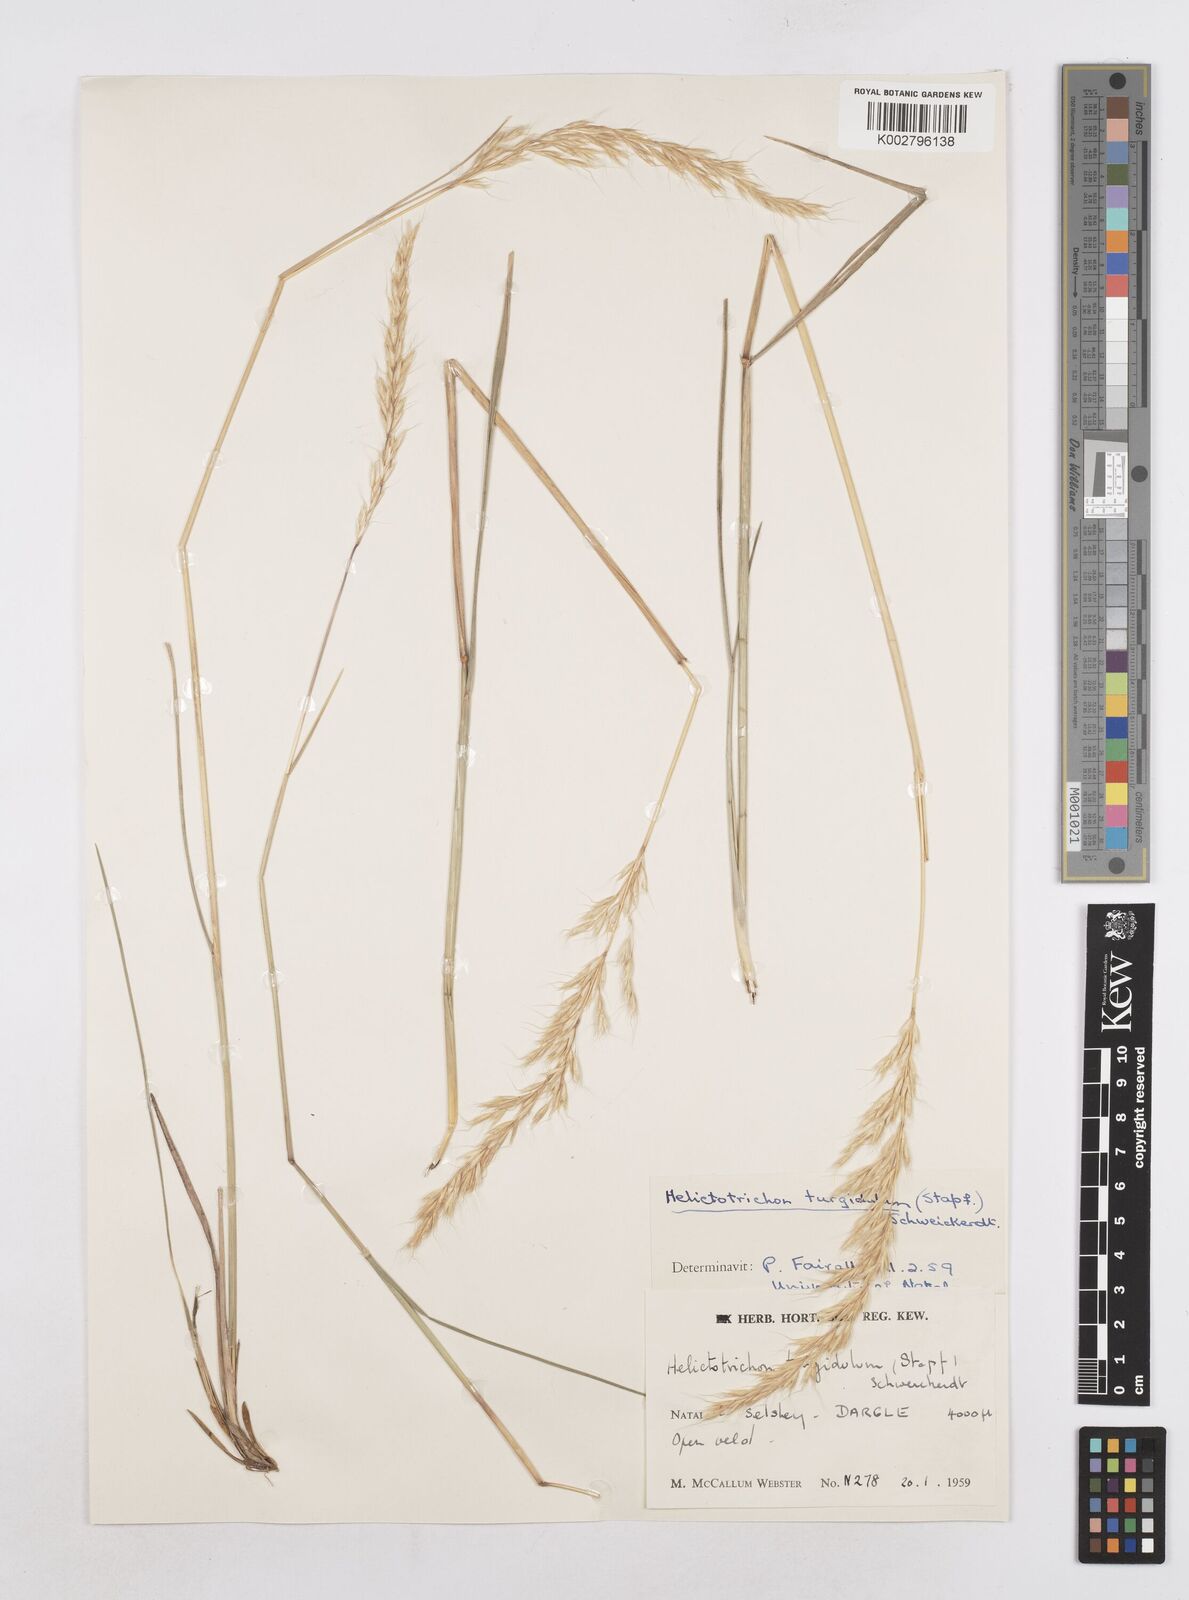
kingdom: Plantae
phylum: Tracheophyta
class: Liliopsida
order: Poales
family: Poaceae
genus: Trisetopsis
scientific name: Trisetopsis imberbis
